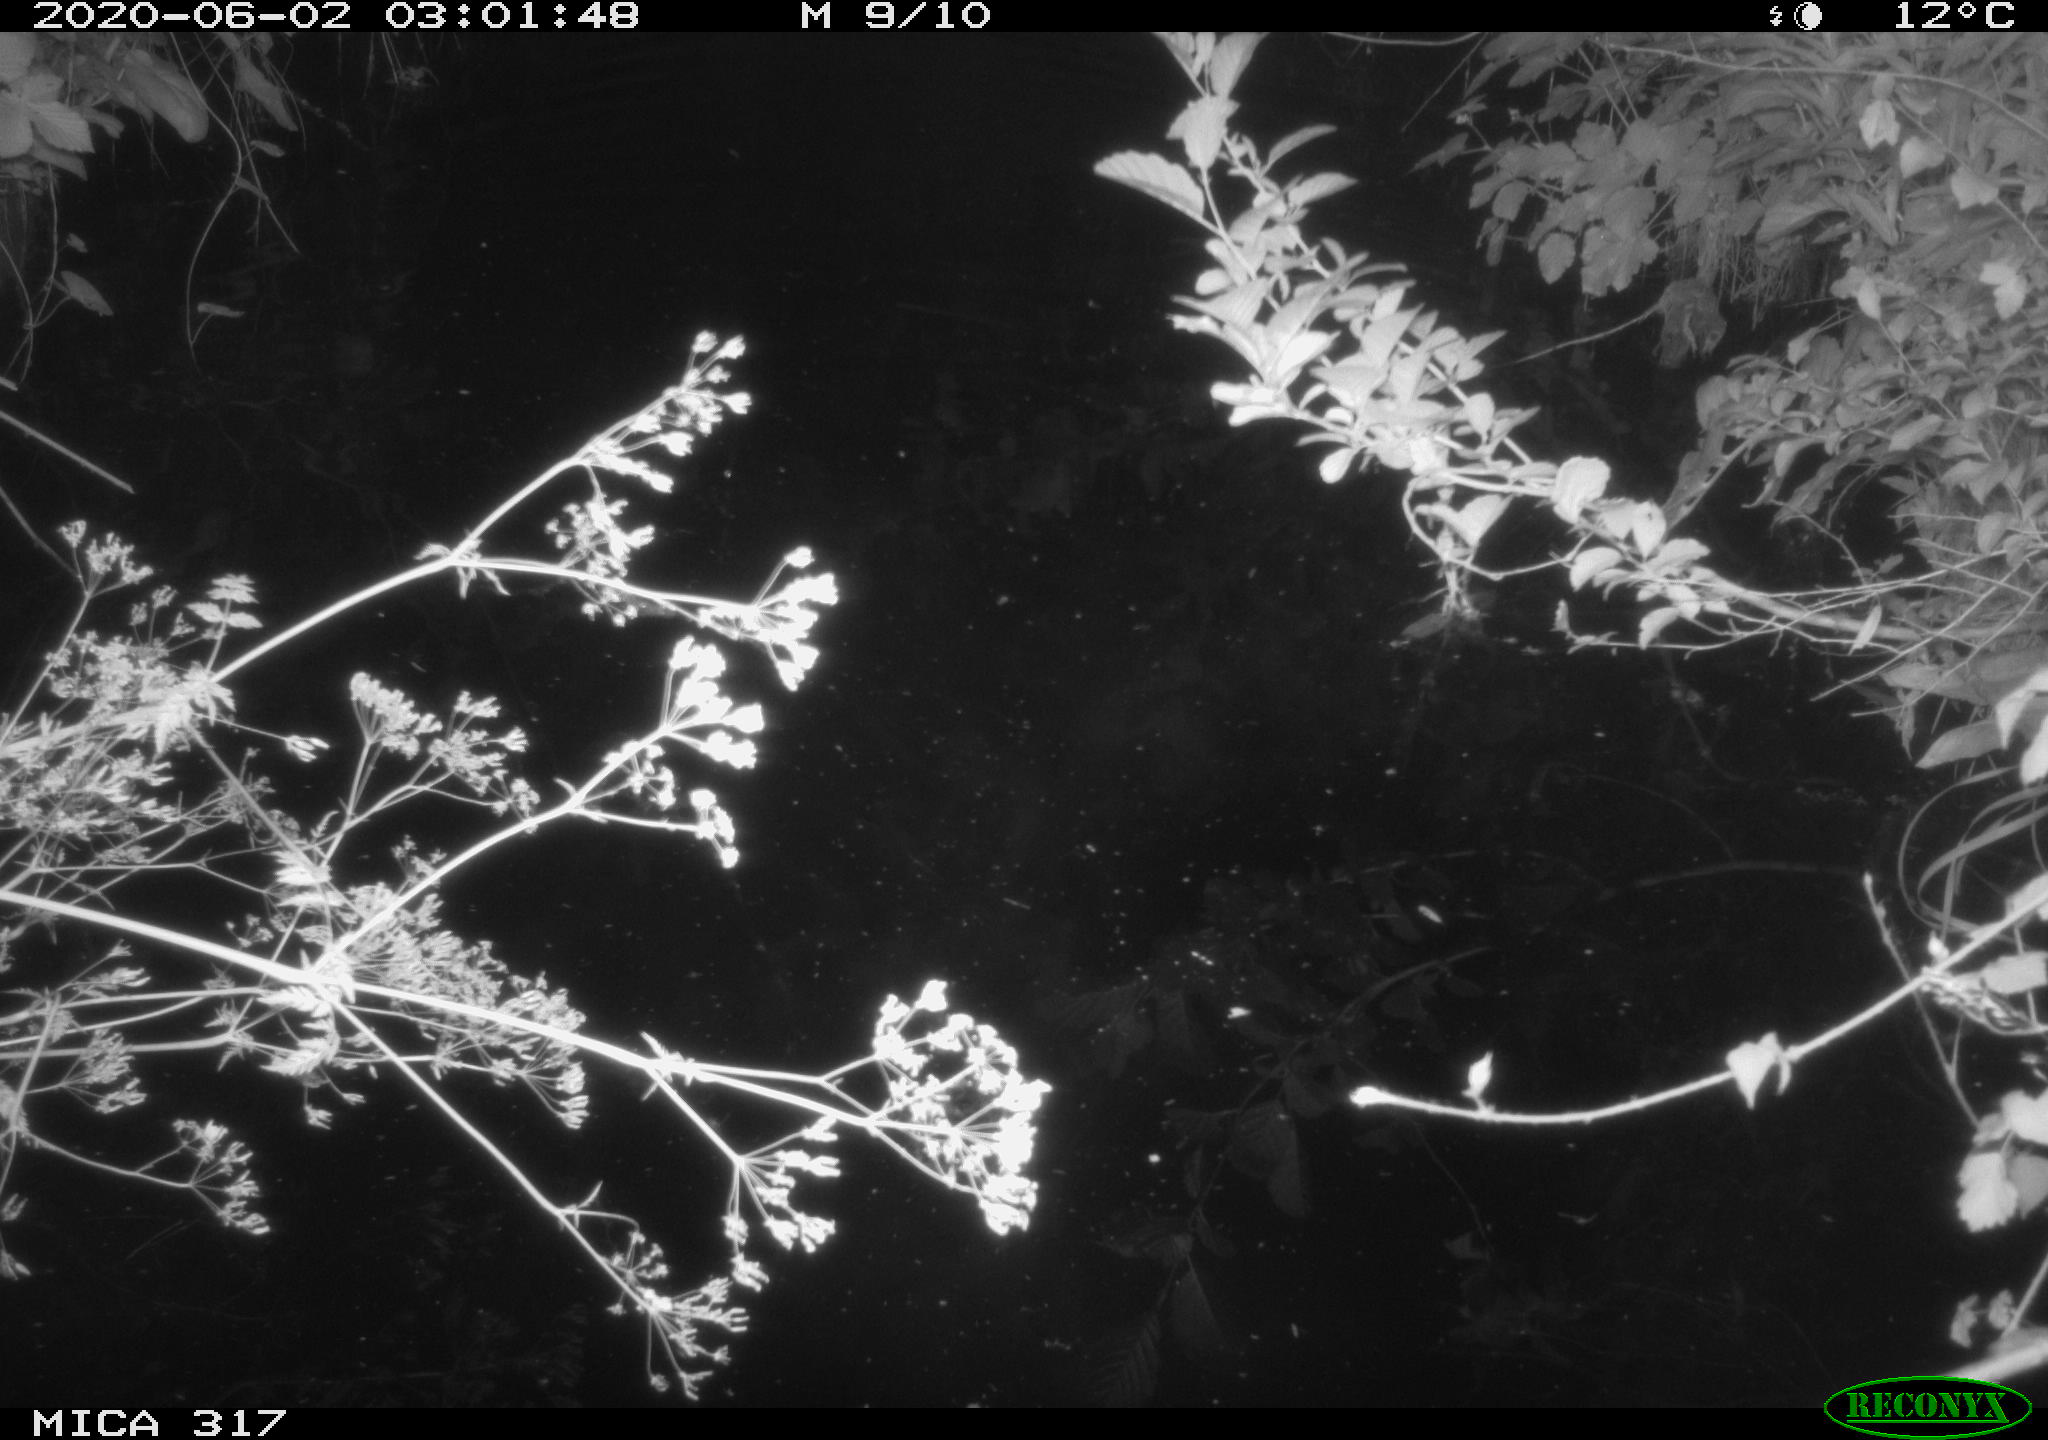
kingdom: Animalia
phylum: Chordata
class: Aves
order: Anseriformes
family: Anatidae
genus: Anas
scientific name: Anas platyrhynchos
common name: Mallard
